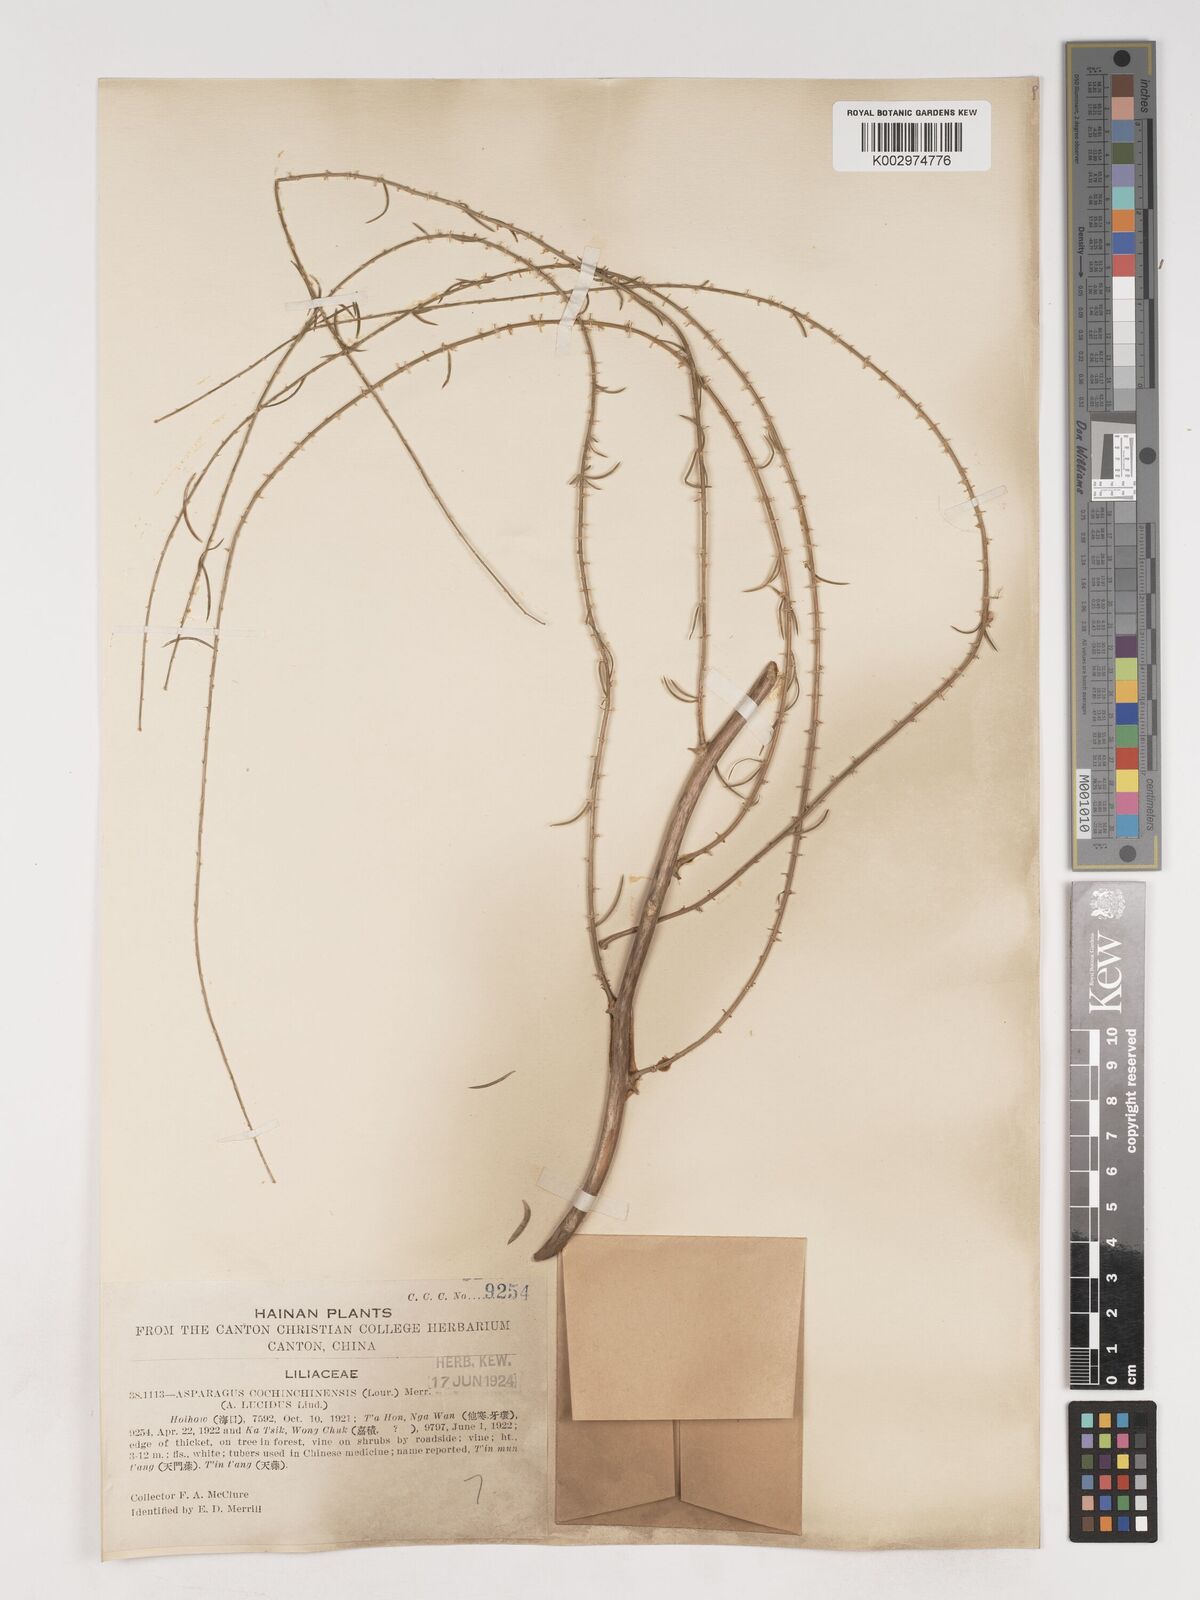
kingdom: Plantae
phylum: Tracheophyta
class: Liliopsida
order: Asparagales
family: Asparagaceae
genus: Asparagus
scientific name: Asparagus cochinchinensis
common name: Chinese asparagus
